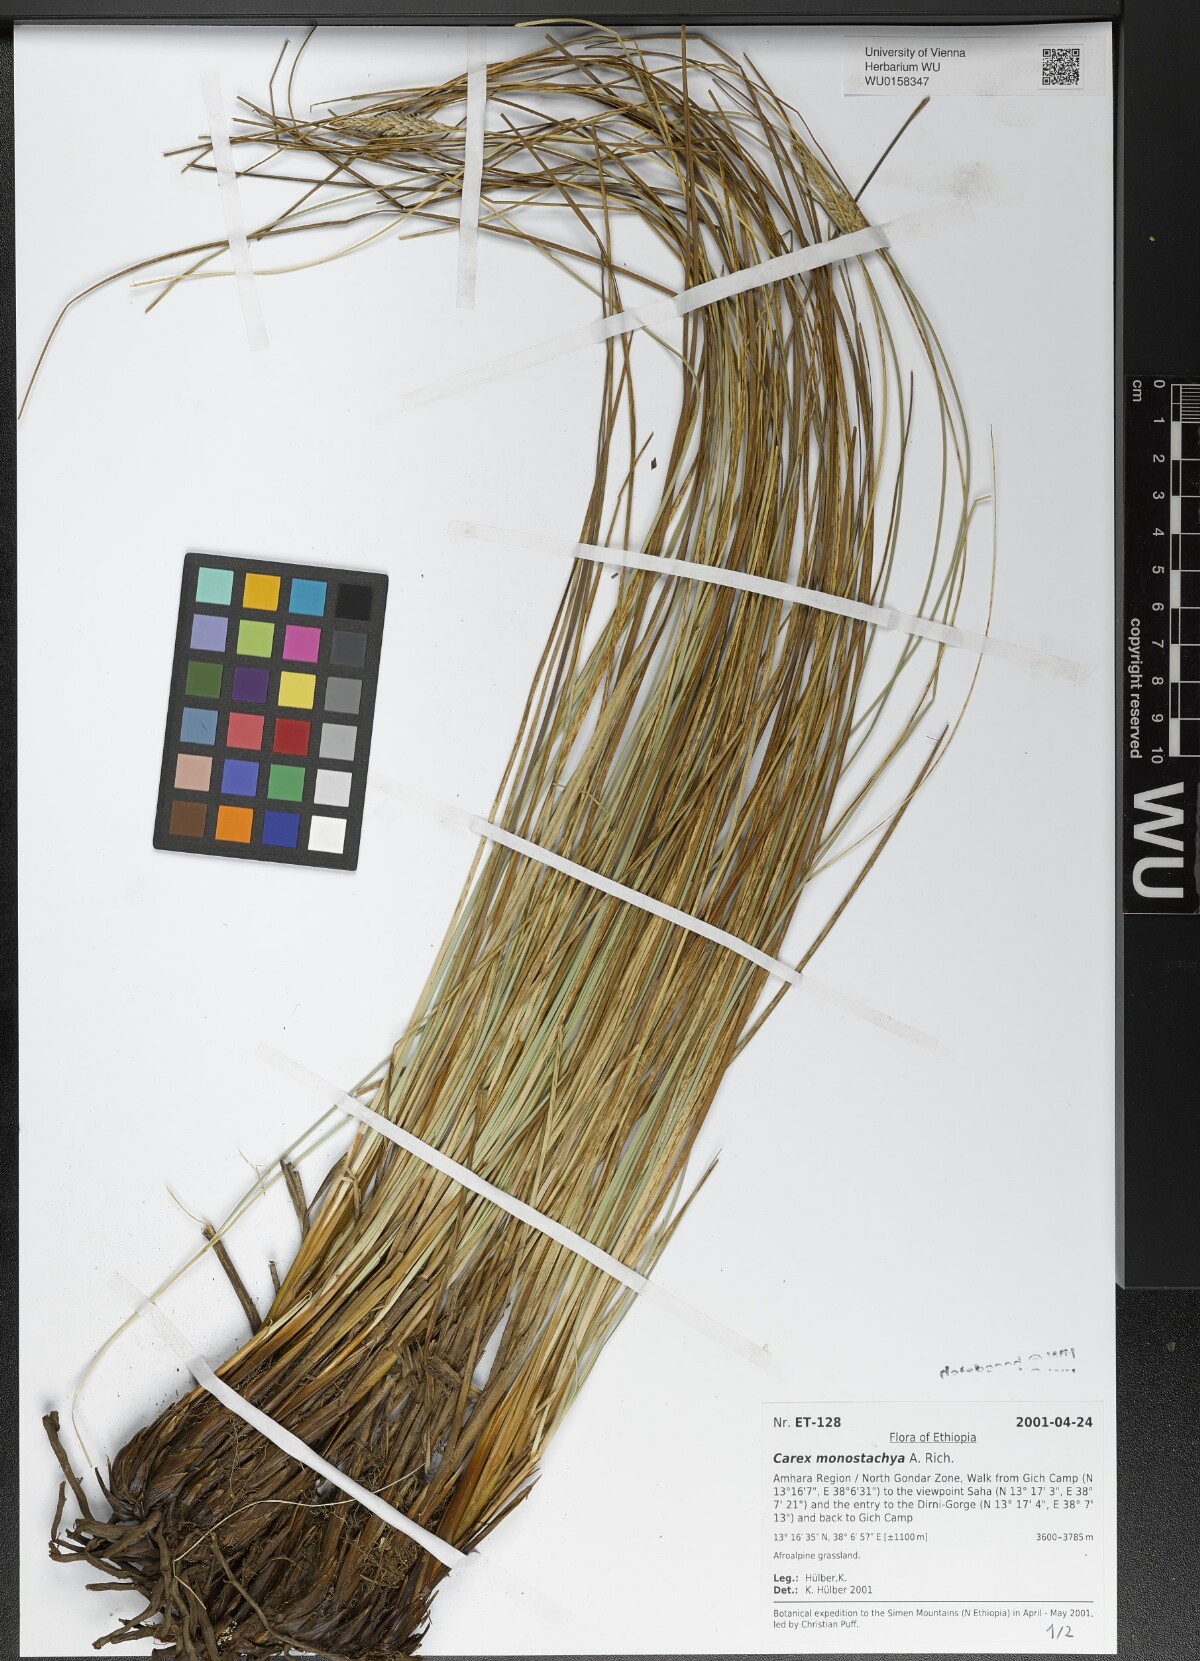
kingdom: Plantae
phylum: Tracheophyta
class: Liliopsida
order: Poales
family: Cyperaceae
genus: Carex
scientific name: Carex monostachya
